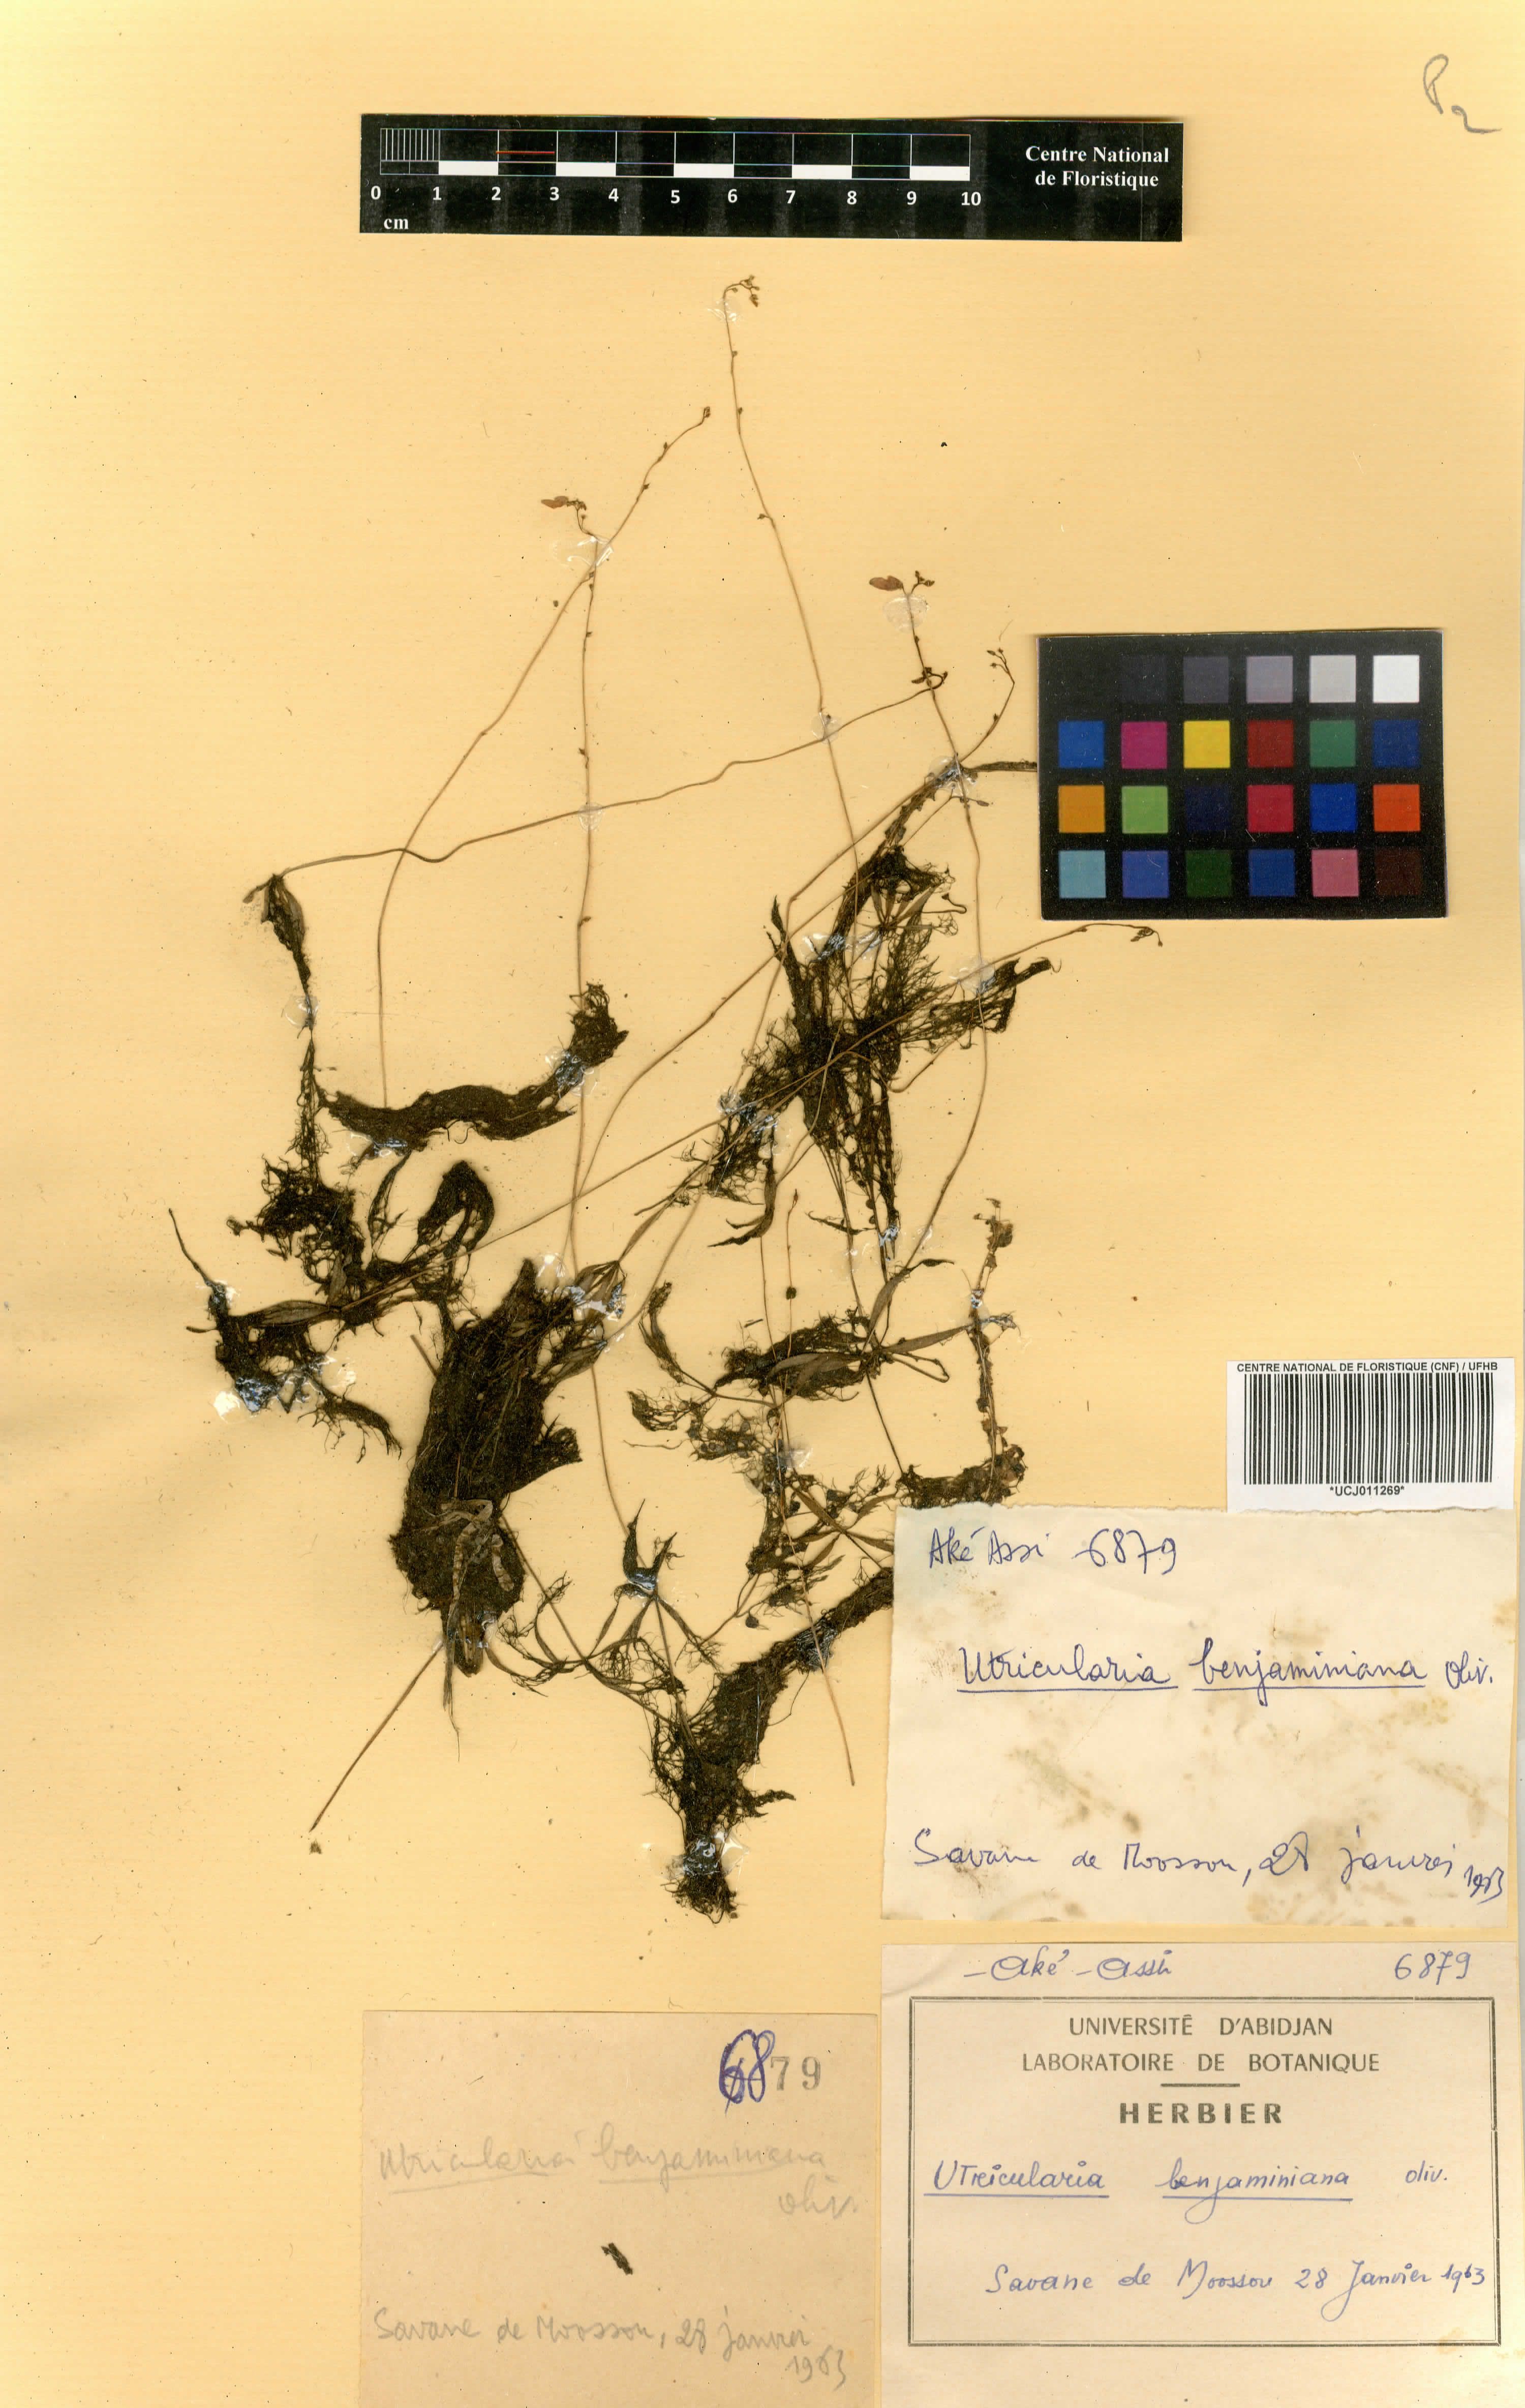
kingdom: Plantae
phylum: Tracheophyta
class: Magnoliopsida
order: Lamiales
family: Lentibulariaceae
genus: Utricularia
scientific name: Utricularia benjaminiana
